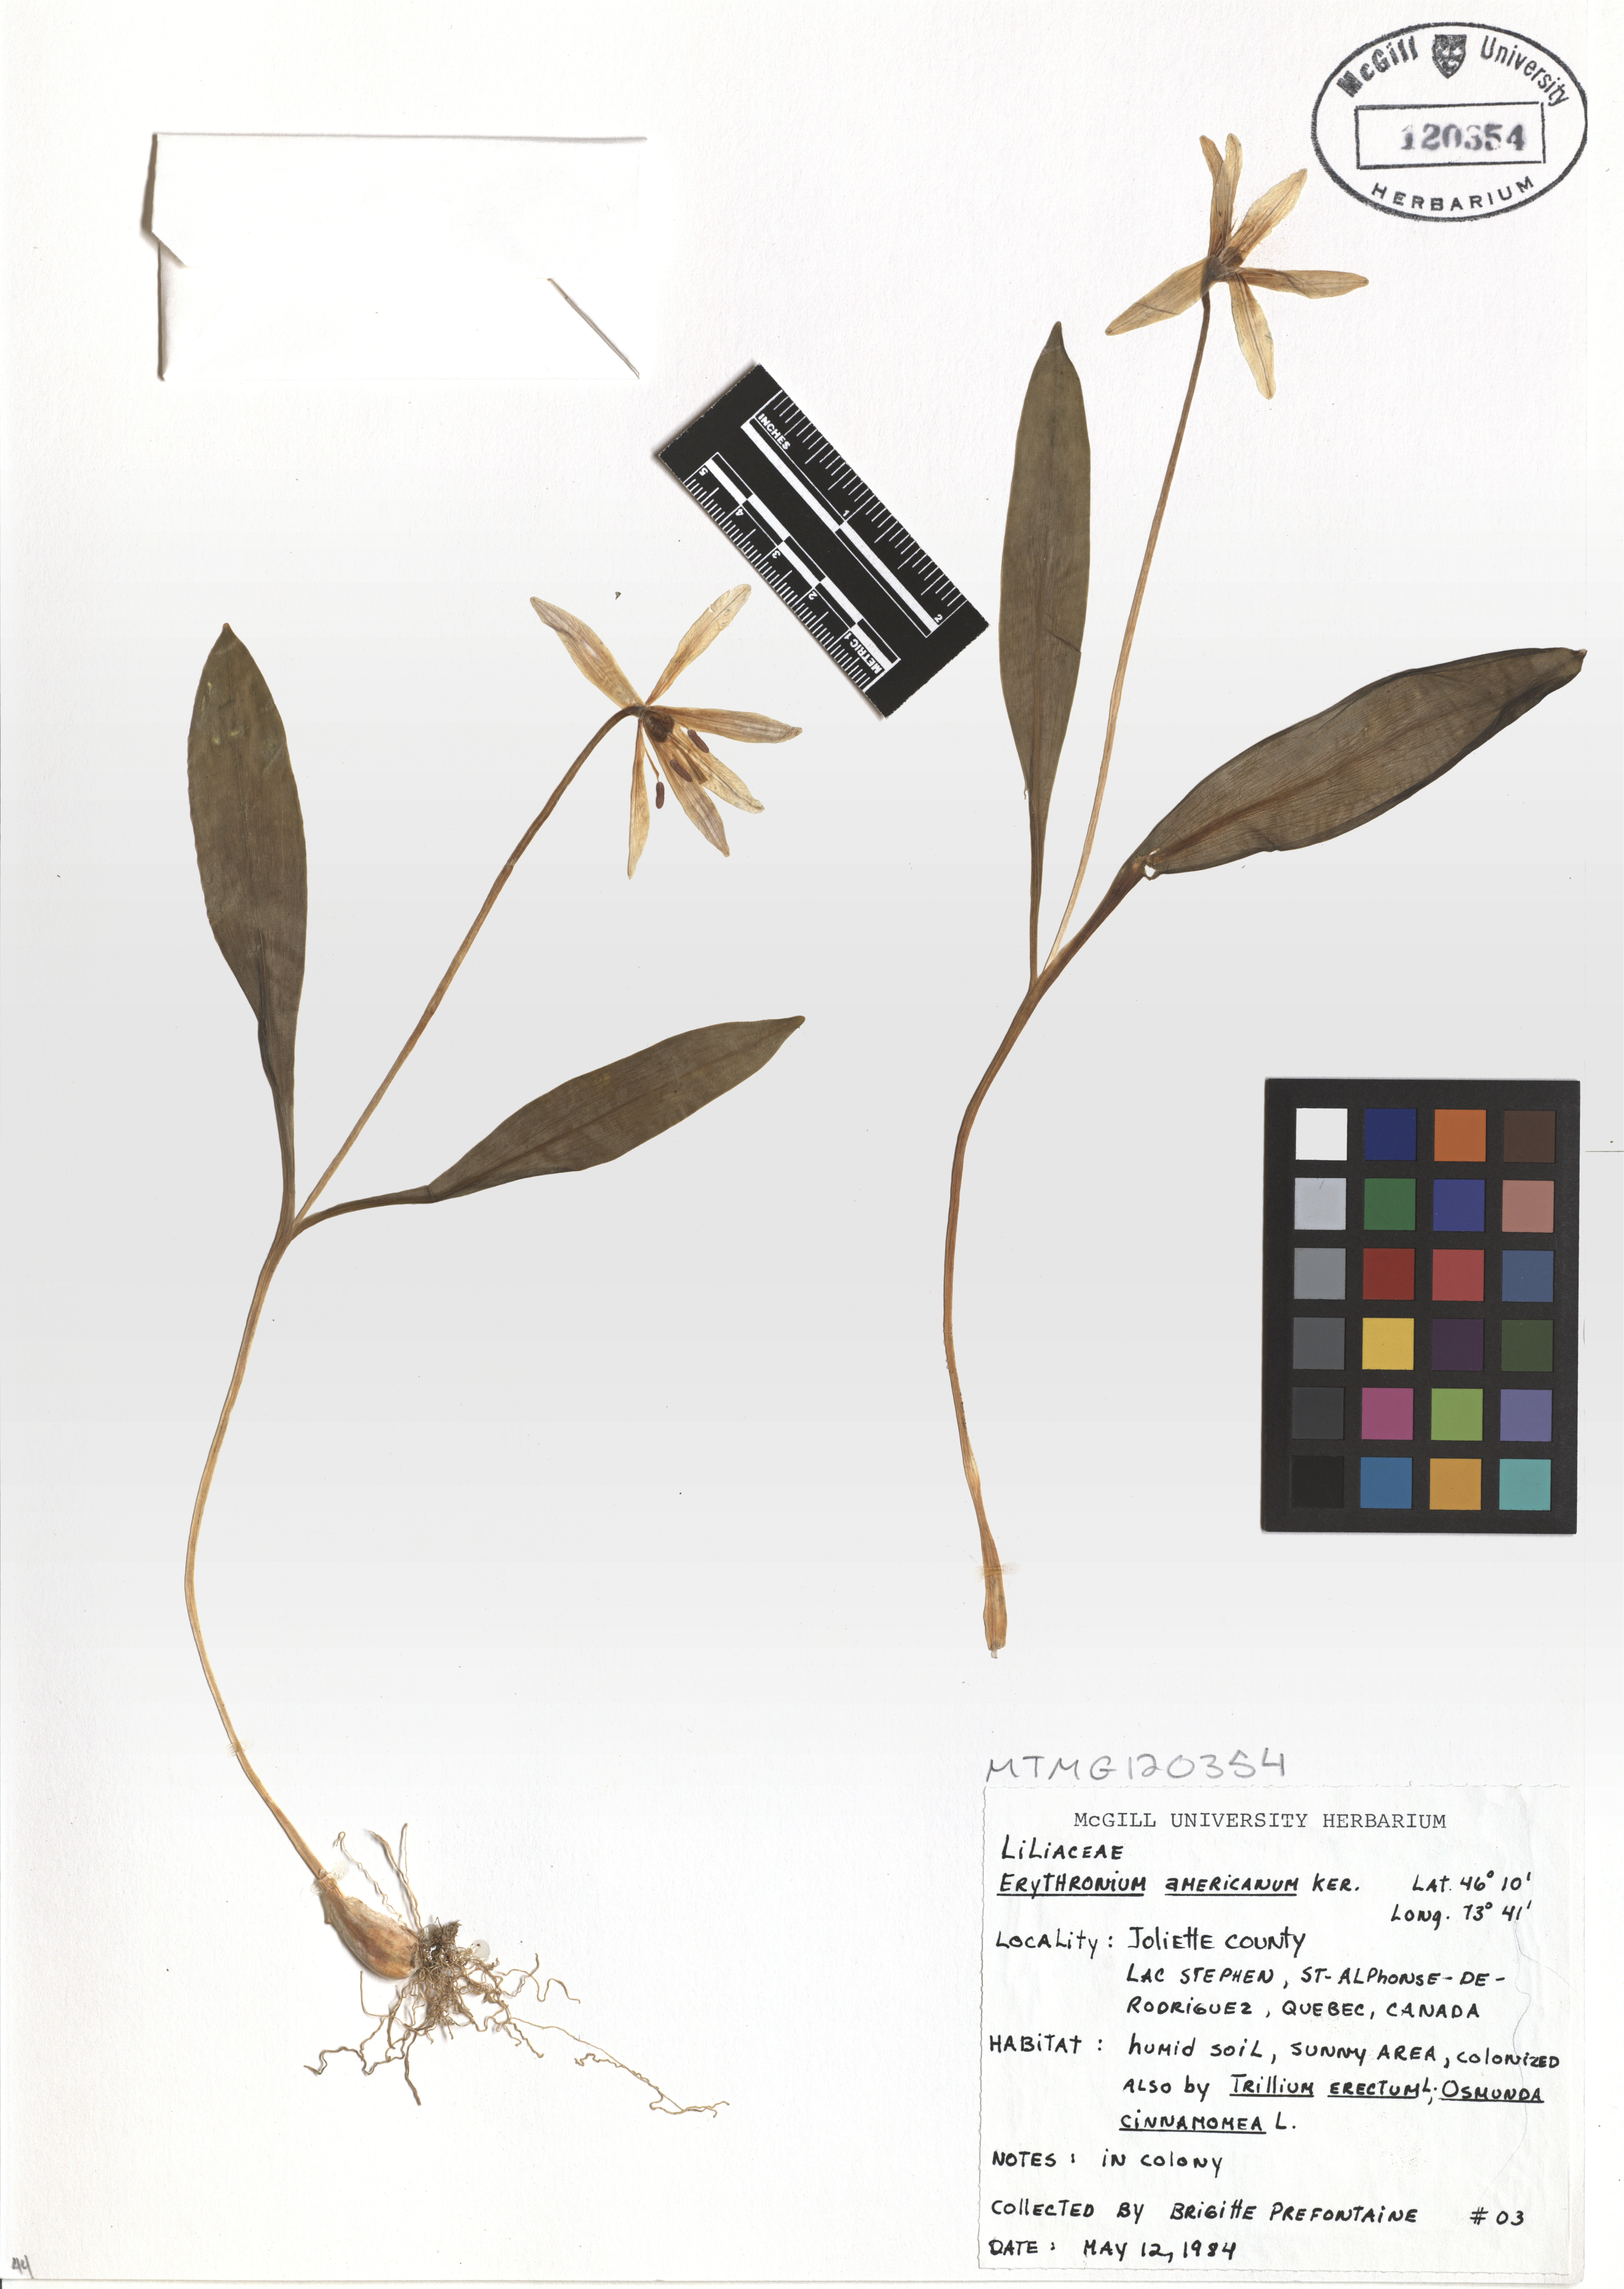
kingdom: Plantae
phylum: Tracheophyta
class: Liliopsida
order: Liliales
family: Liliaceae
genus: Erythronium
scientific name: Erythronium americanum
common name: Yellow adder's-tongue
